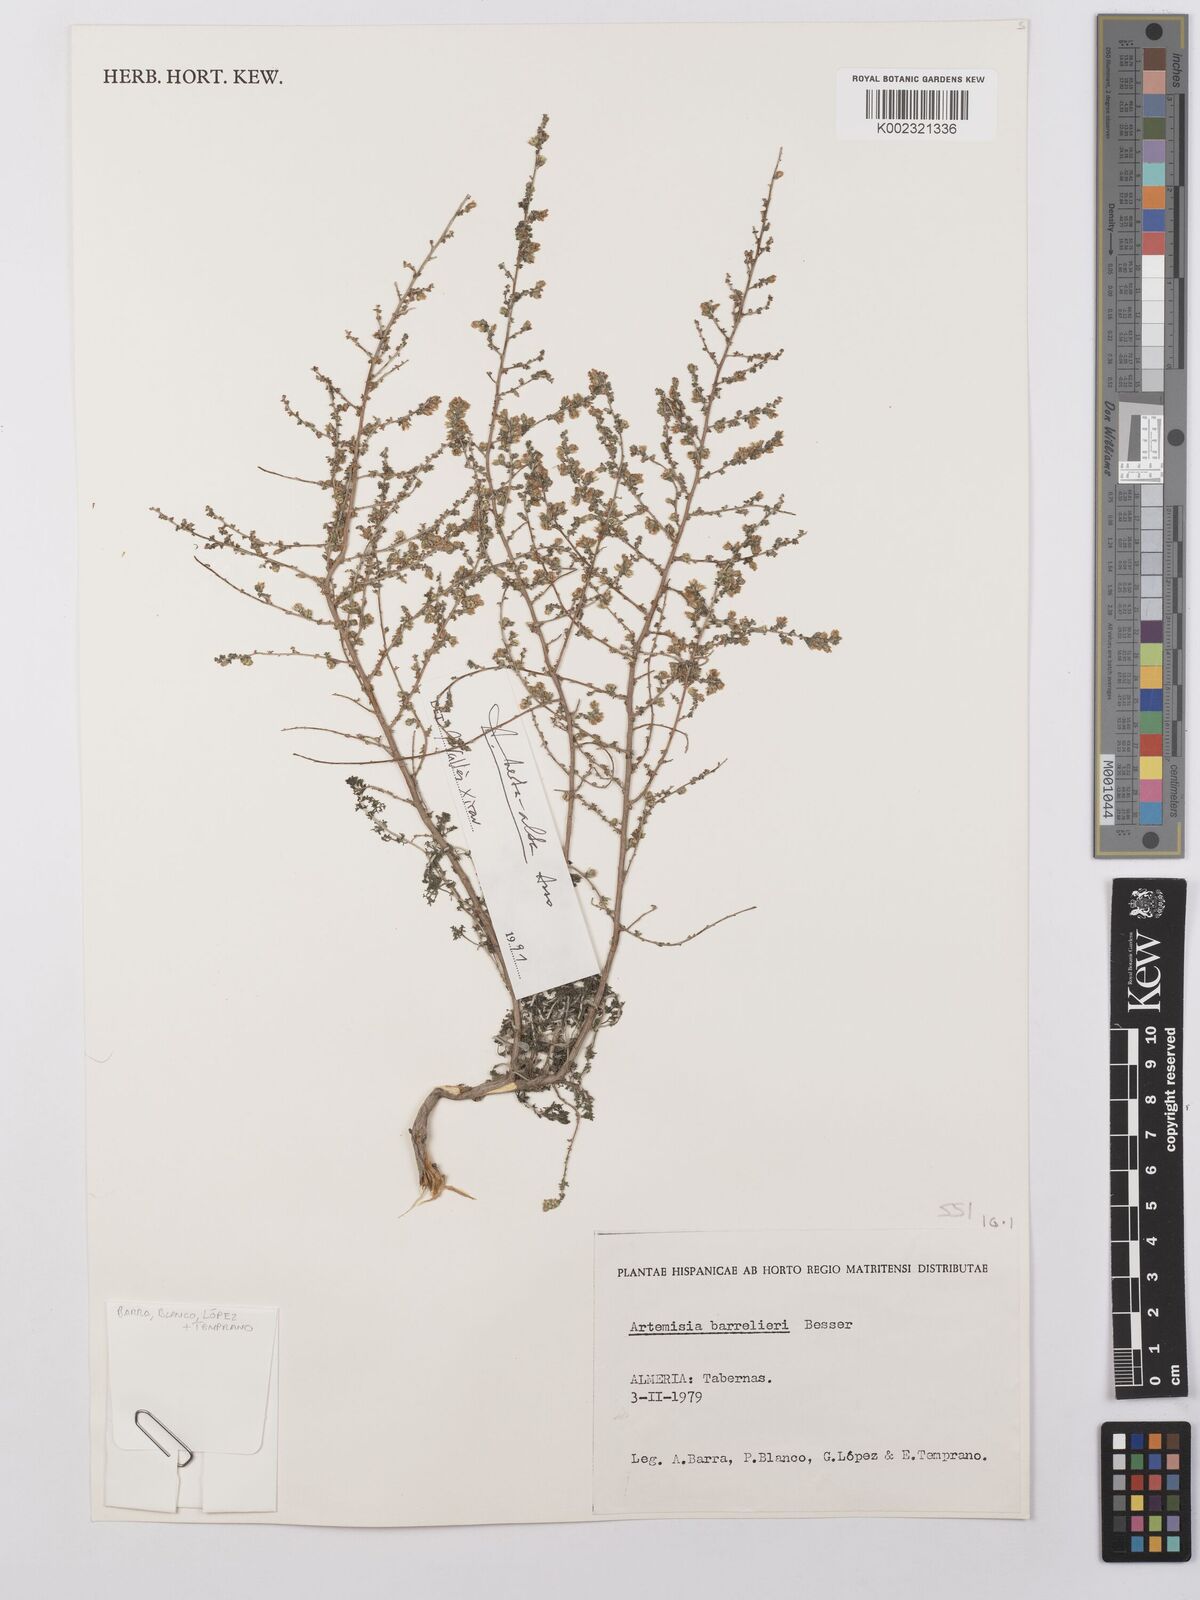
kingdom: Plantae
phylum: Tracheophyta
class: Magnoliopsida
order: Asterales
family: Asteraceae
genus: Artemisia
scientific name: Artemisia herba-alba
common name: White wormwood
